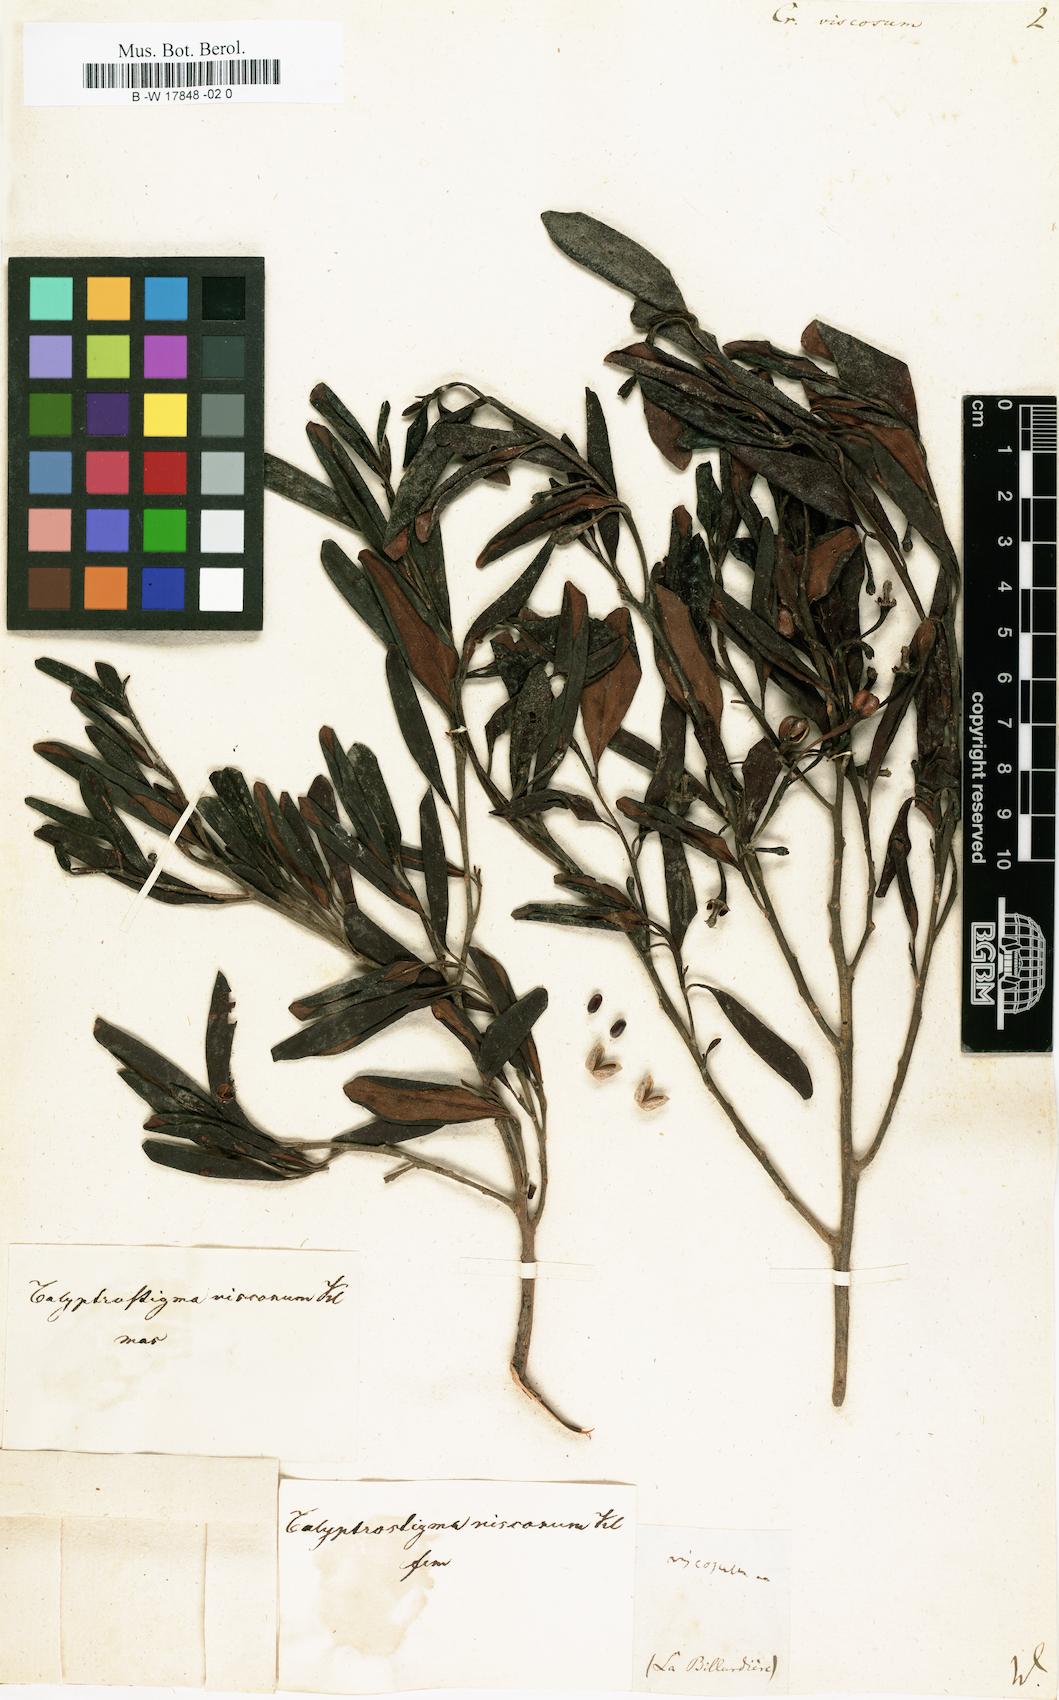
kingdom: Plantae
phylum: Tracheophyta
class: Magnoliopsida
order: Malpighiales
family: Euphorbiaceae
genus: Beyeria
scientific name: Beyeria viscosa
